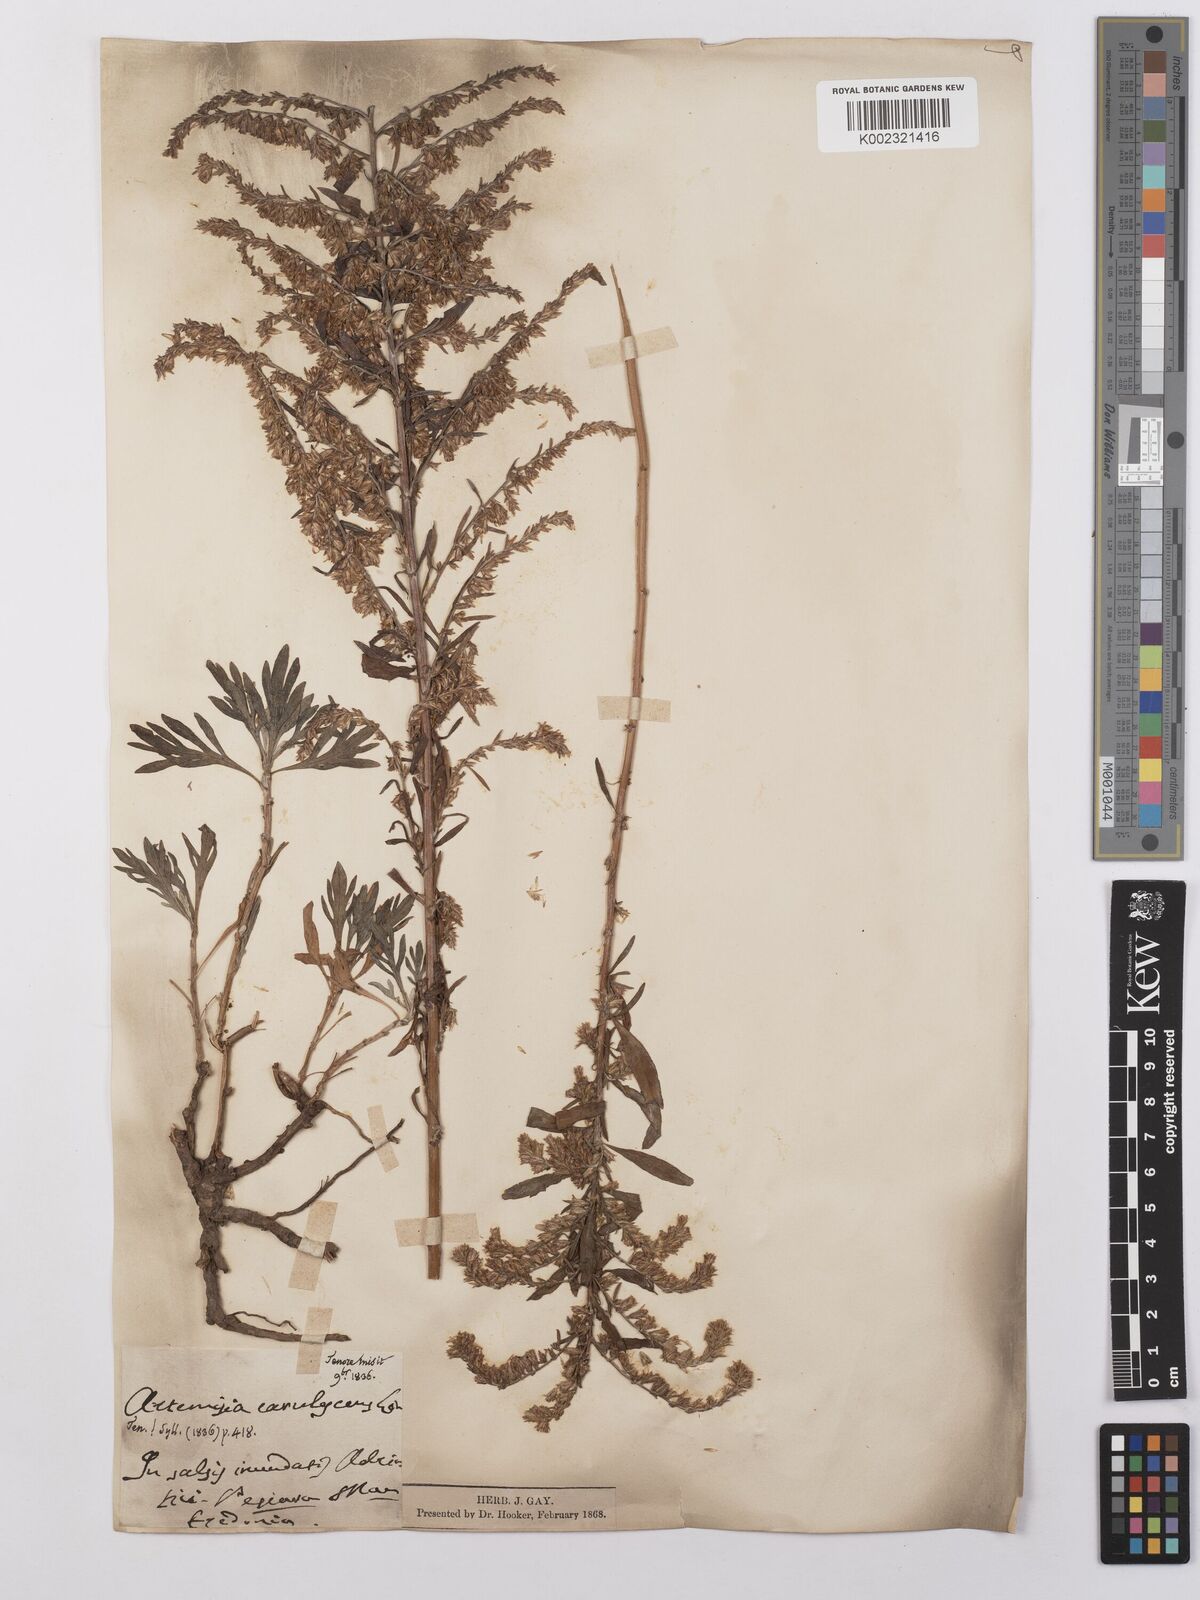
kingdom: Plantae
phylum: Tracheophyta
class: Magnoliopsida
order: Asterales
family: Asteraceae
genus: Artemisia
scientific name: Artemisia caerulescens
